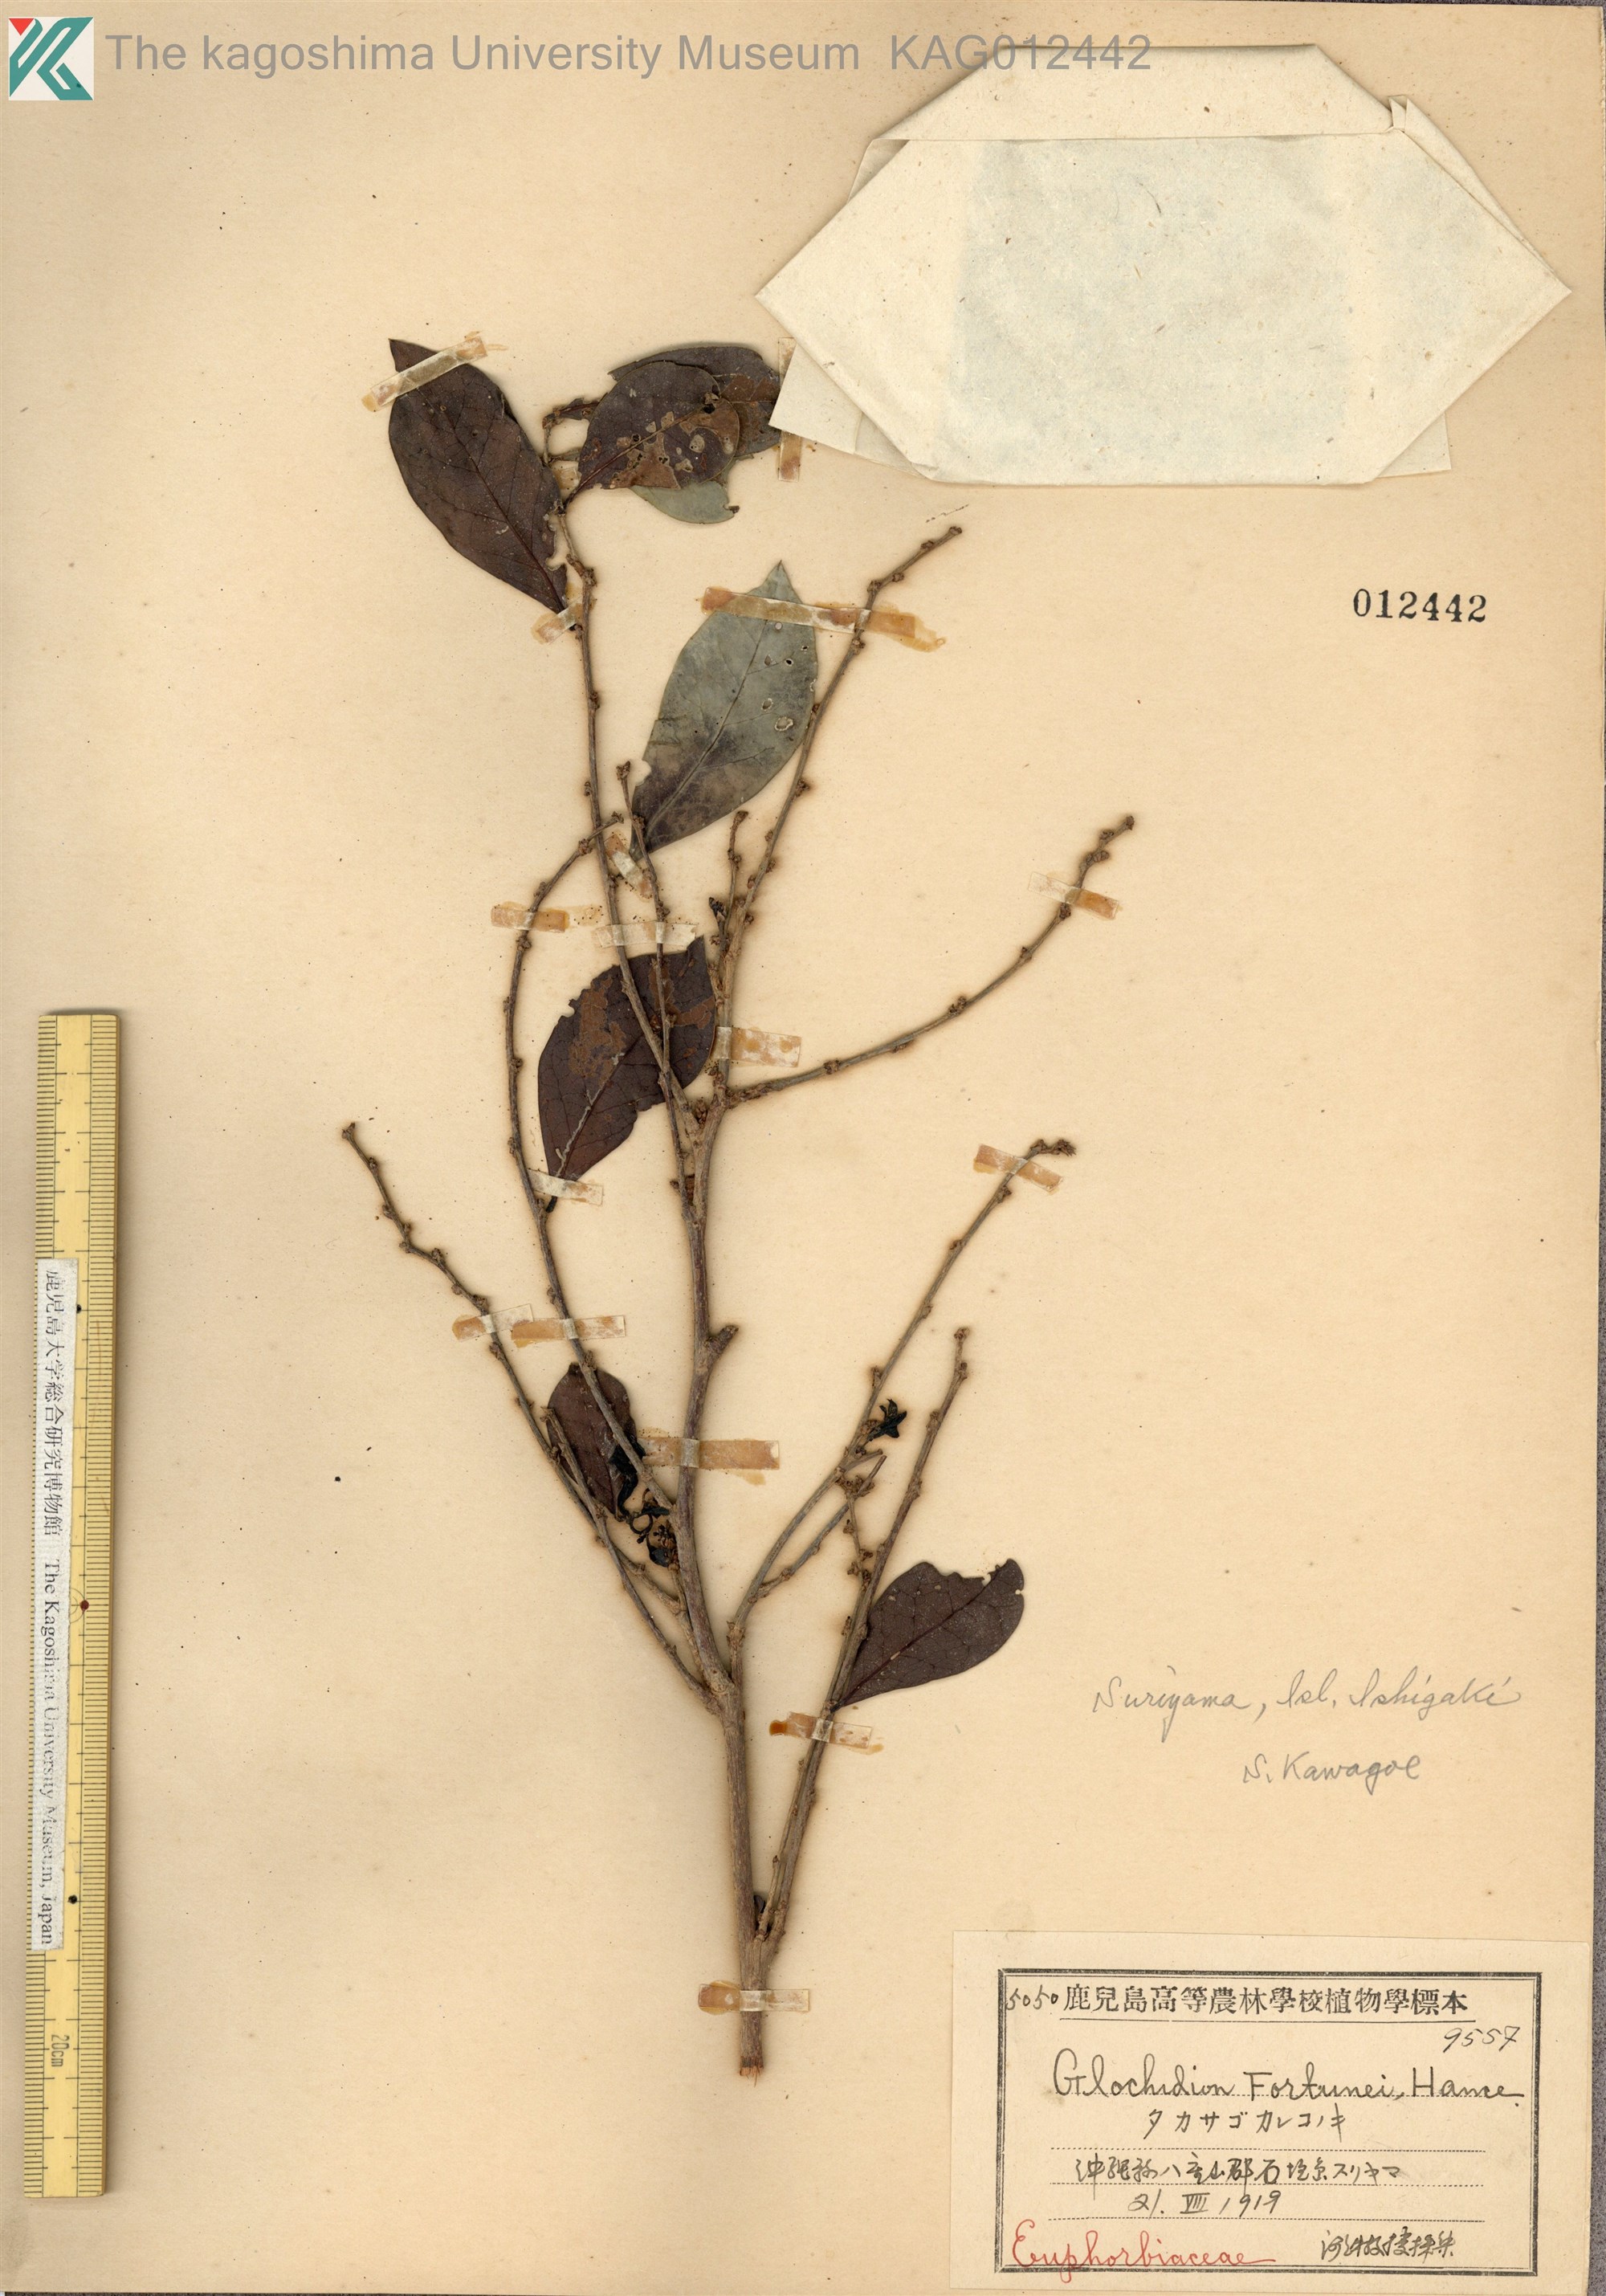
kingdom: Plantae
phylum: Tracheophyta
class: Magnoliopsida
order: Malpighiales
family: Phyllanthaceae
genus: Glochidion
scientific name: Glochidion rubrum
